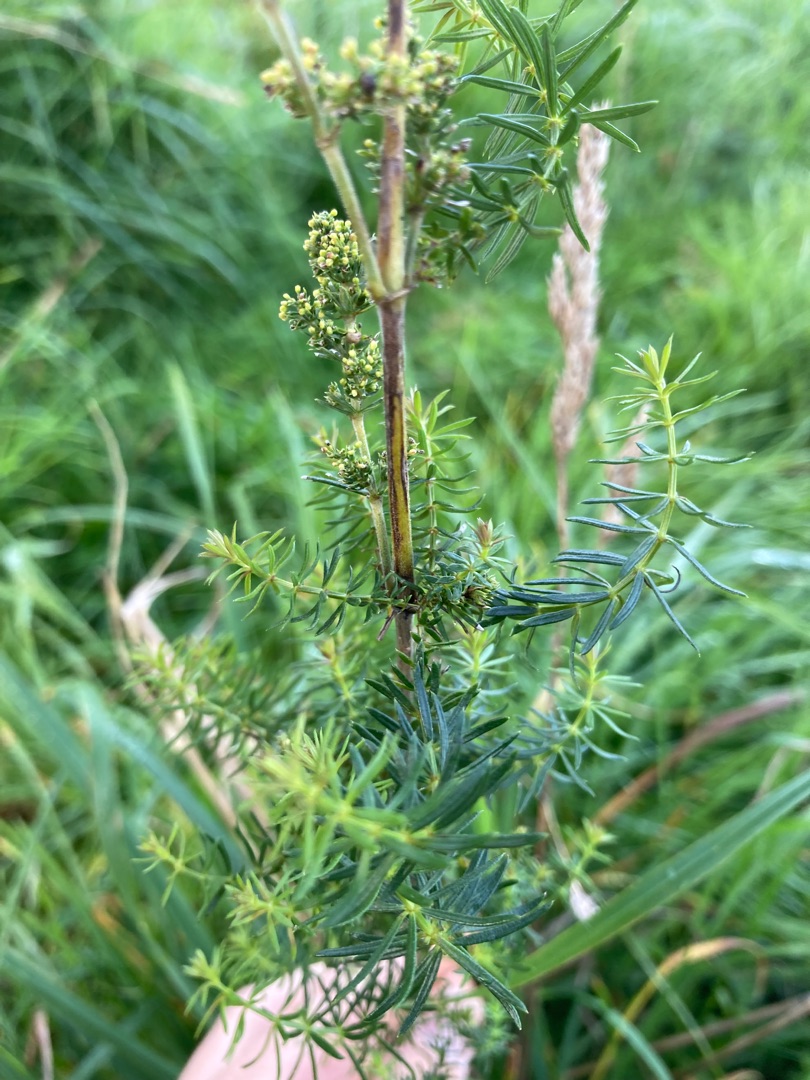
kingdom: Plantae
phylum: Tracheophyta
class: Magnoliopsida
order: Gentianales
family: Rubiaceae
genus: Galium
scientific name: Galium verum
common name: Gul snerre
